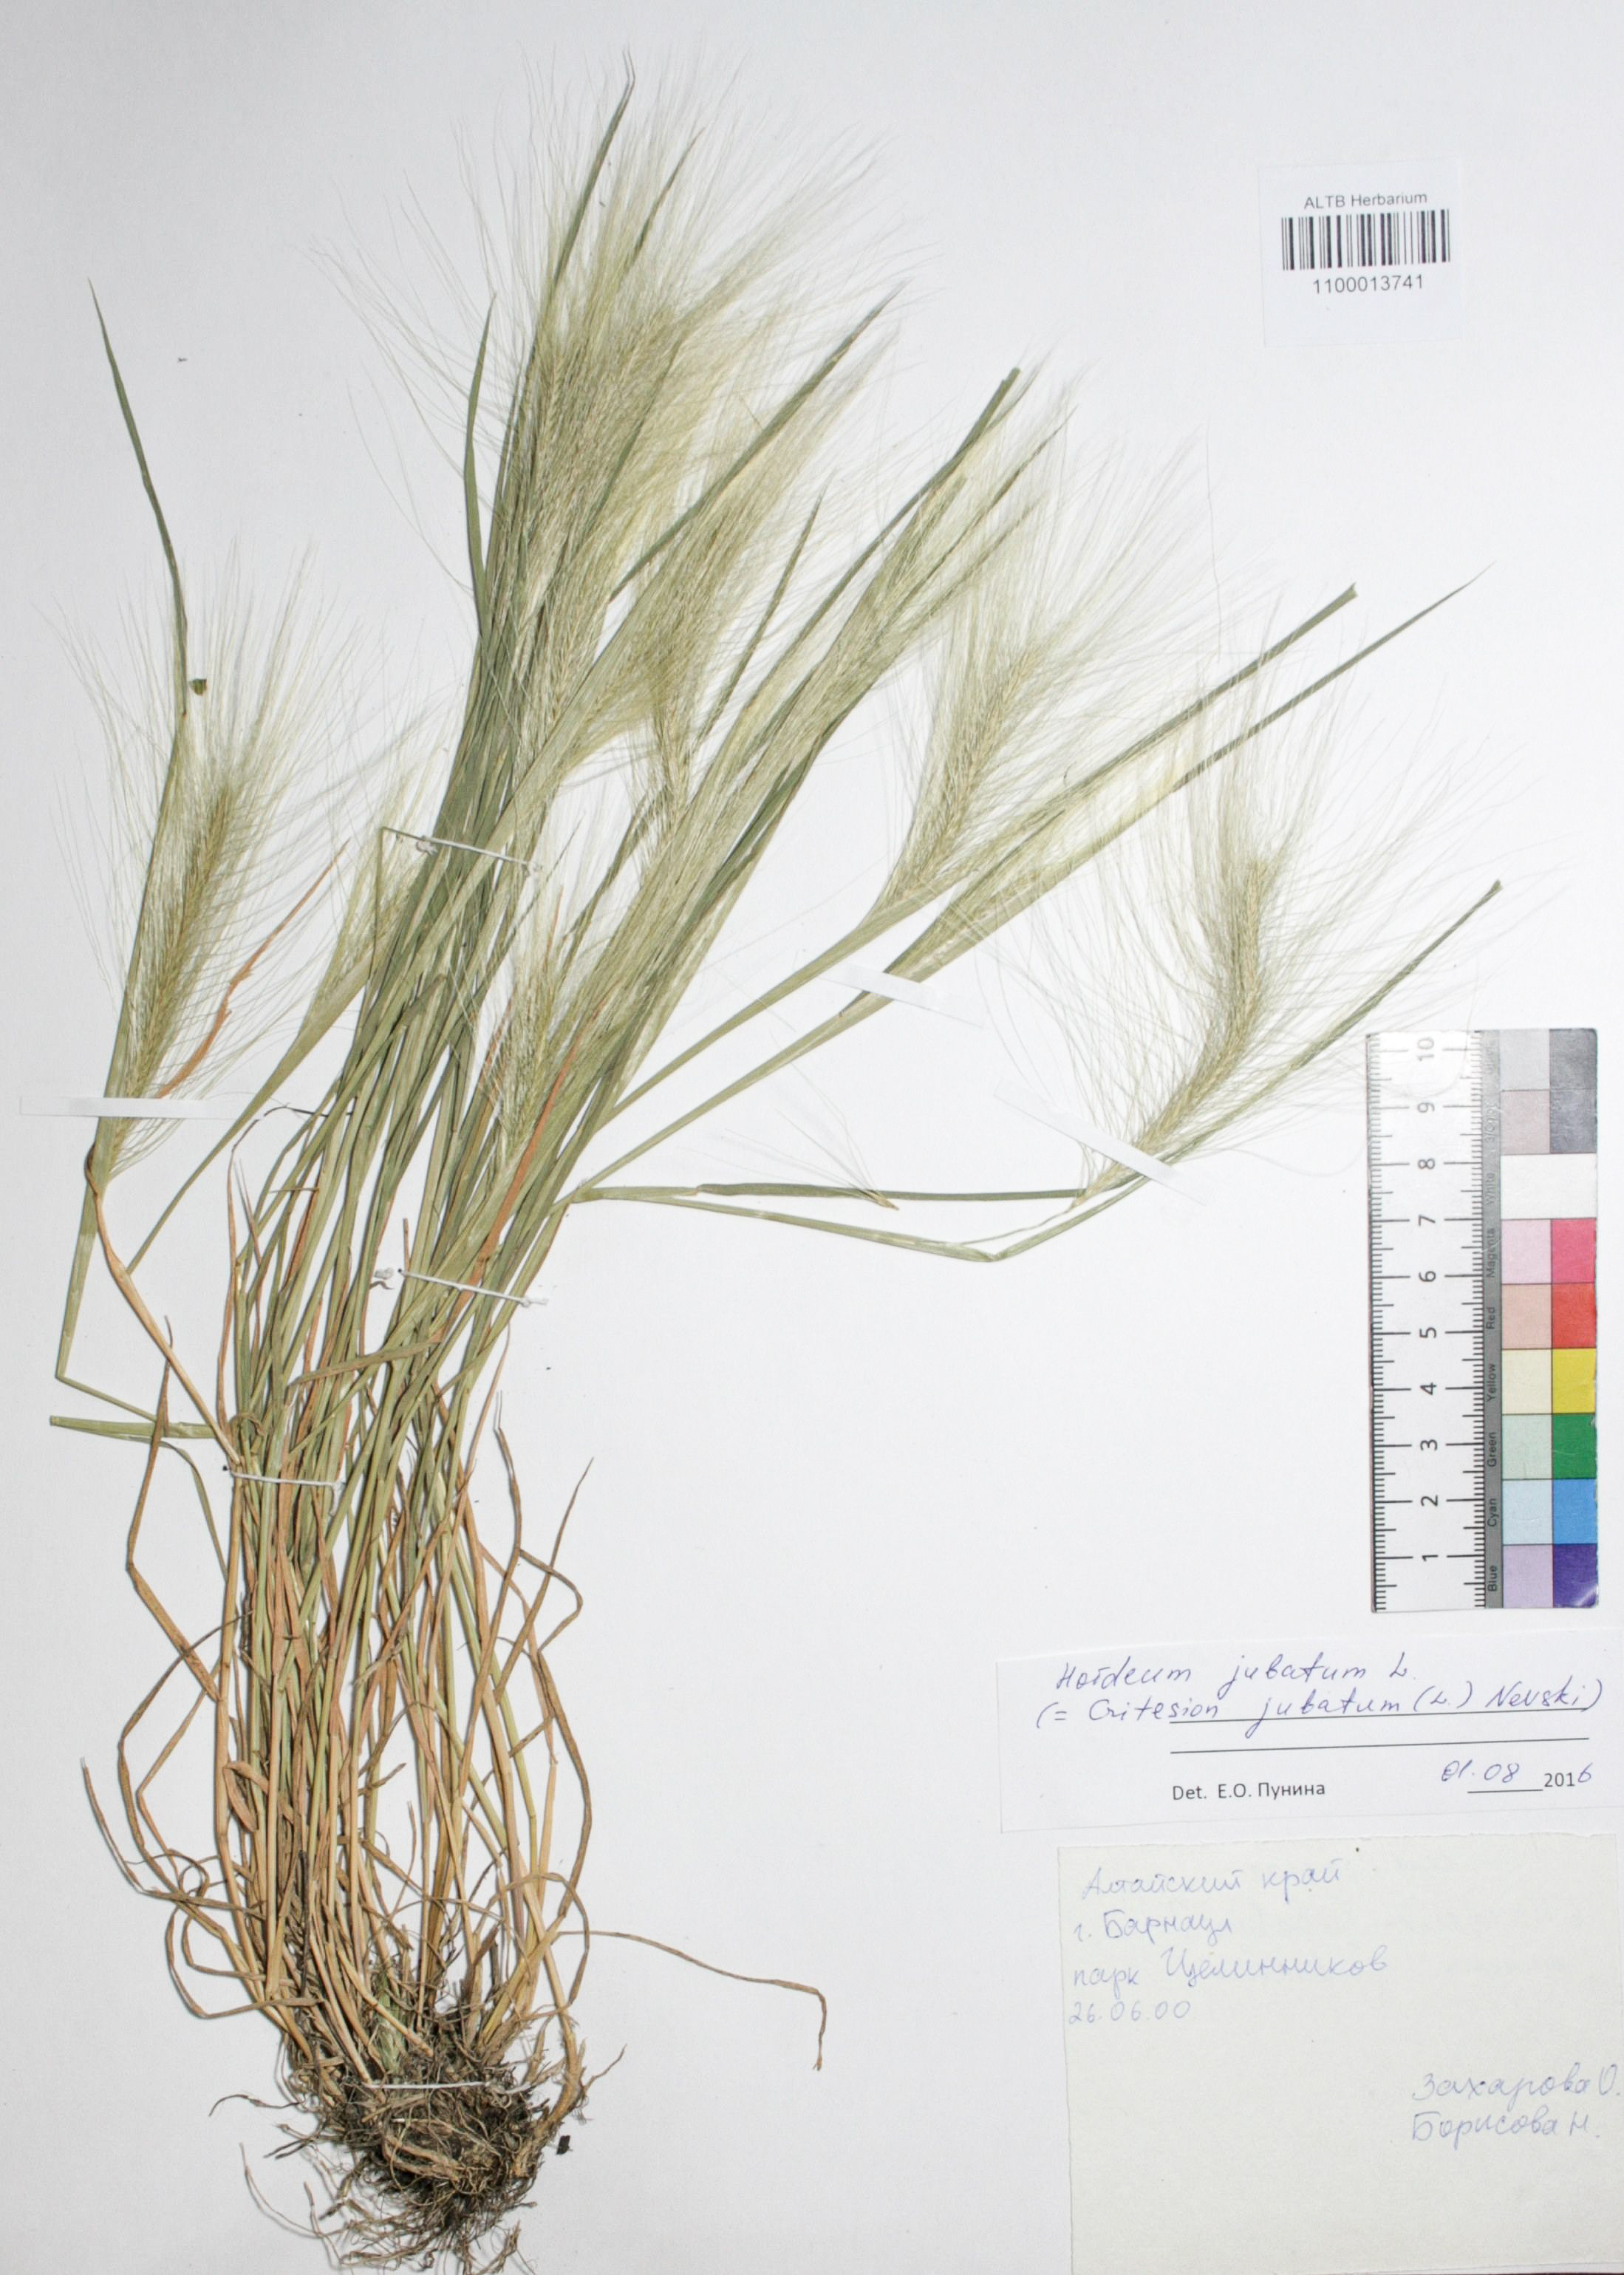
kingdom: Plantae
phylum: Tracheophyta
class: Liliopsida
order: Poales
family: Poaceae
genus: Hordeum
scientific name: Hordeum jubatum
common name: Foxtail barley
